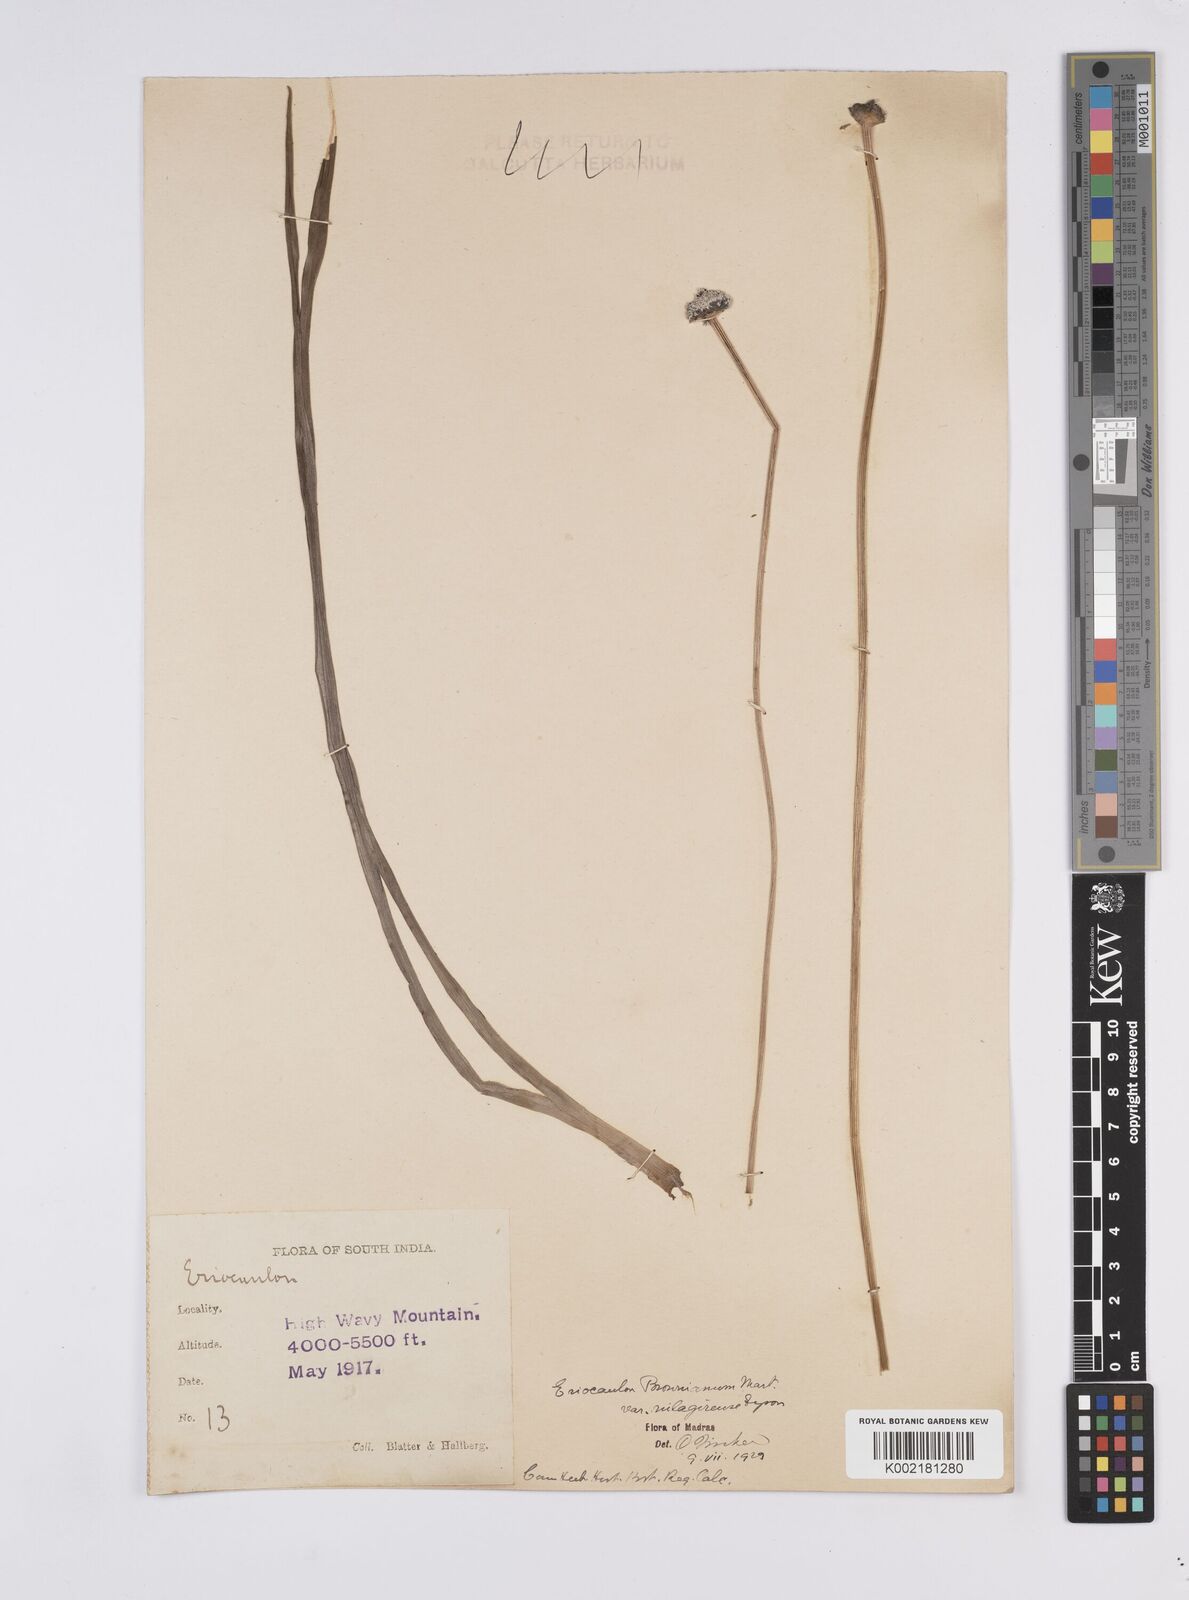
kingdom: Plantae
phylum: Tracheophyta
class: Liliopsida
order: Poales
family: Eriocaulaceae
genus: Eriocaulon
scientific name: Eriocaulon brownianum
